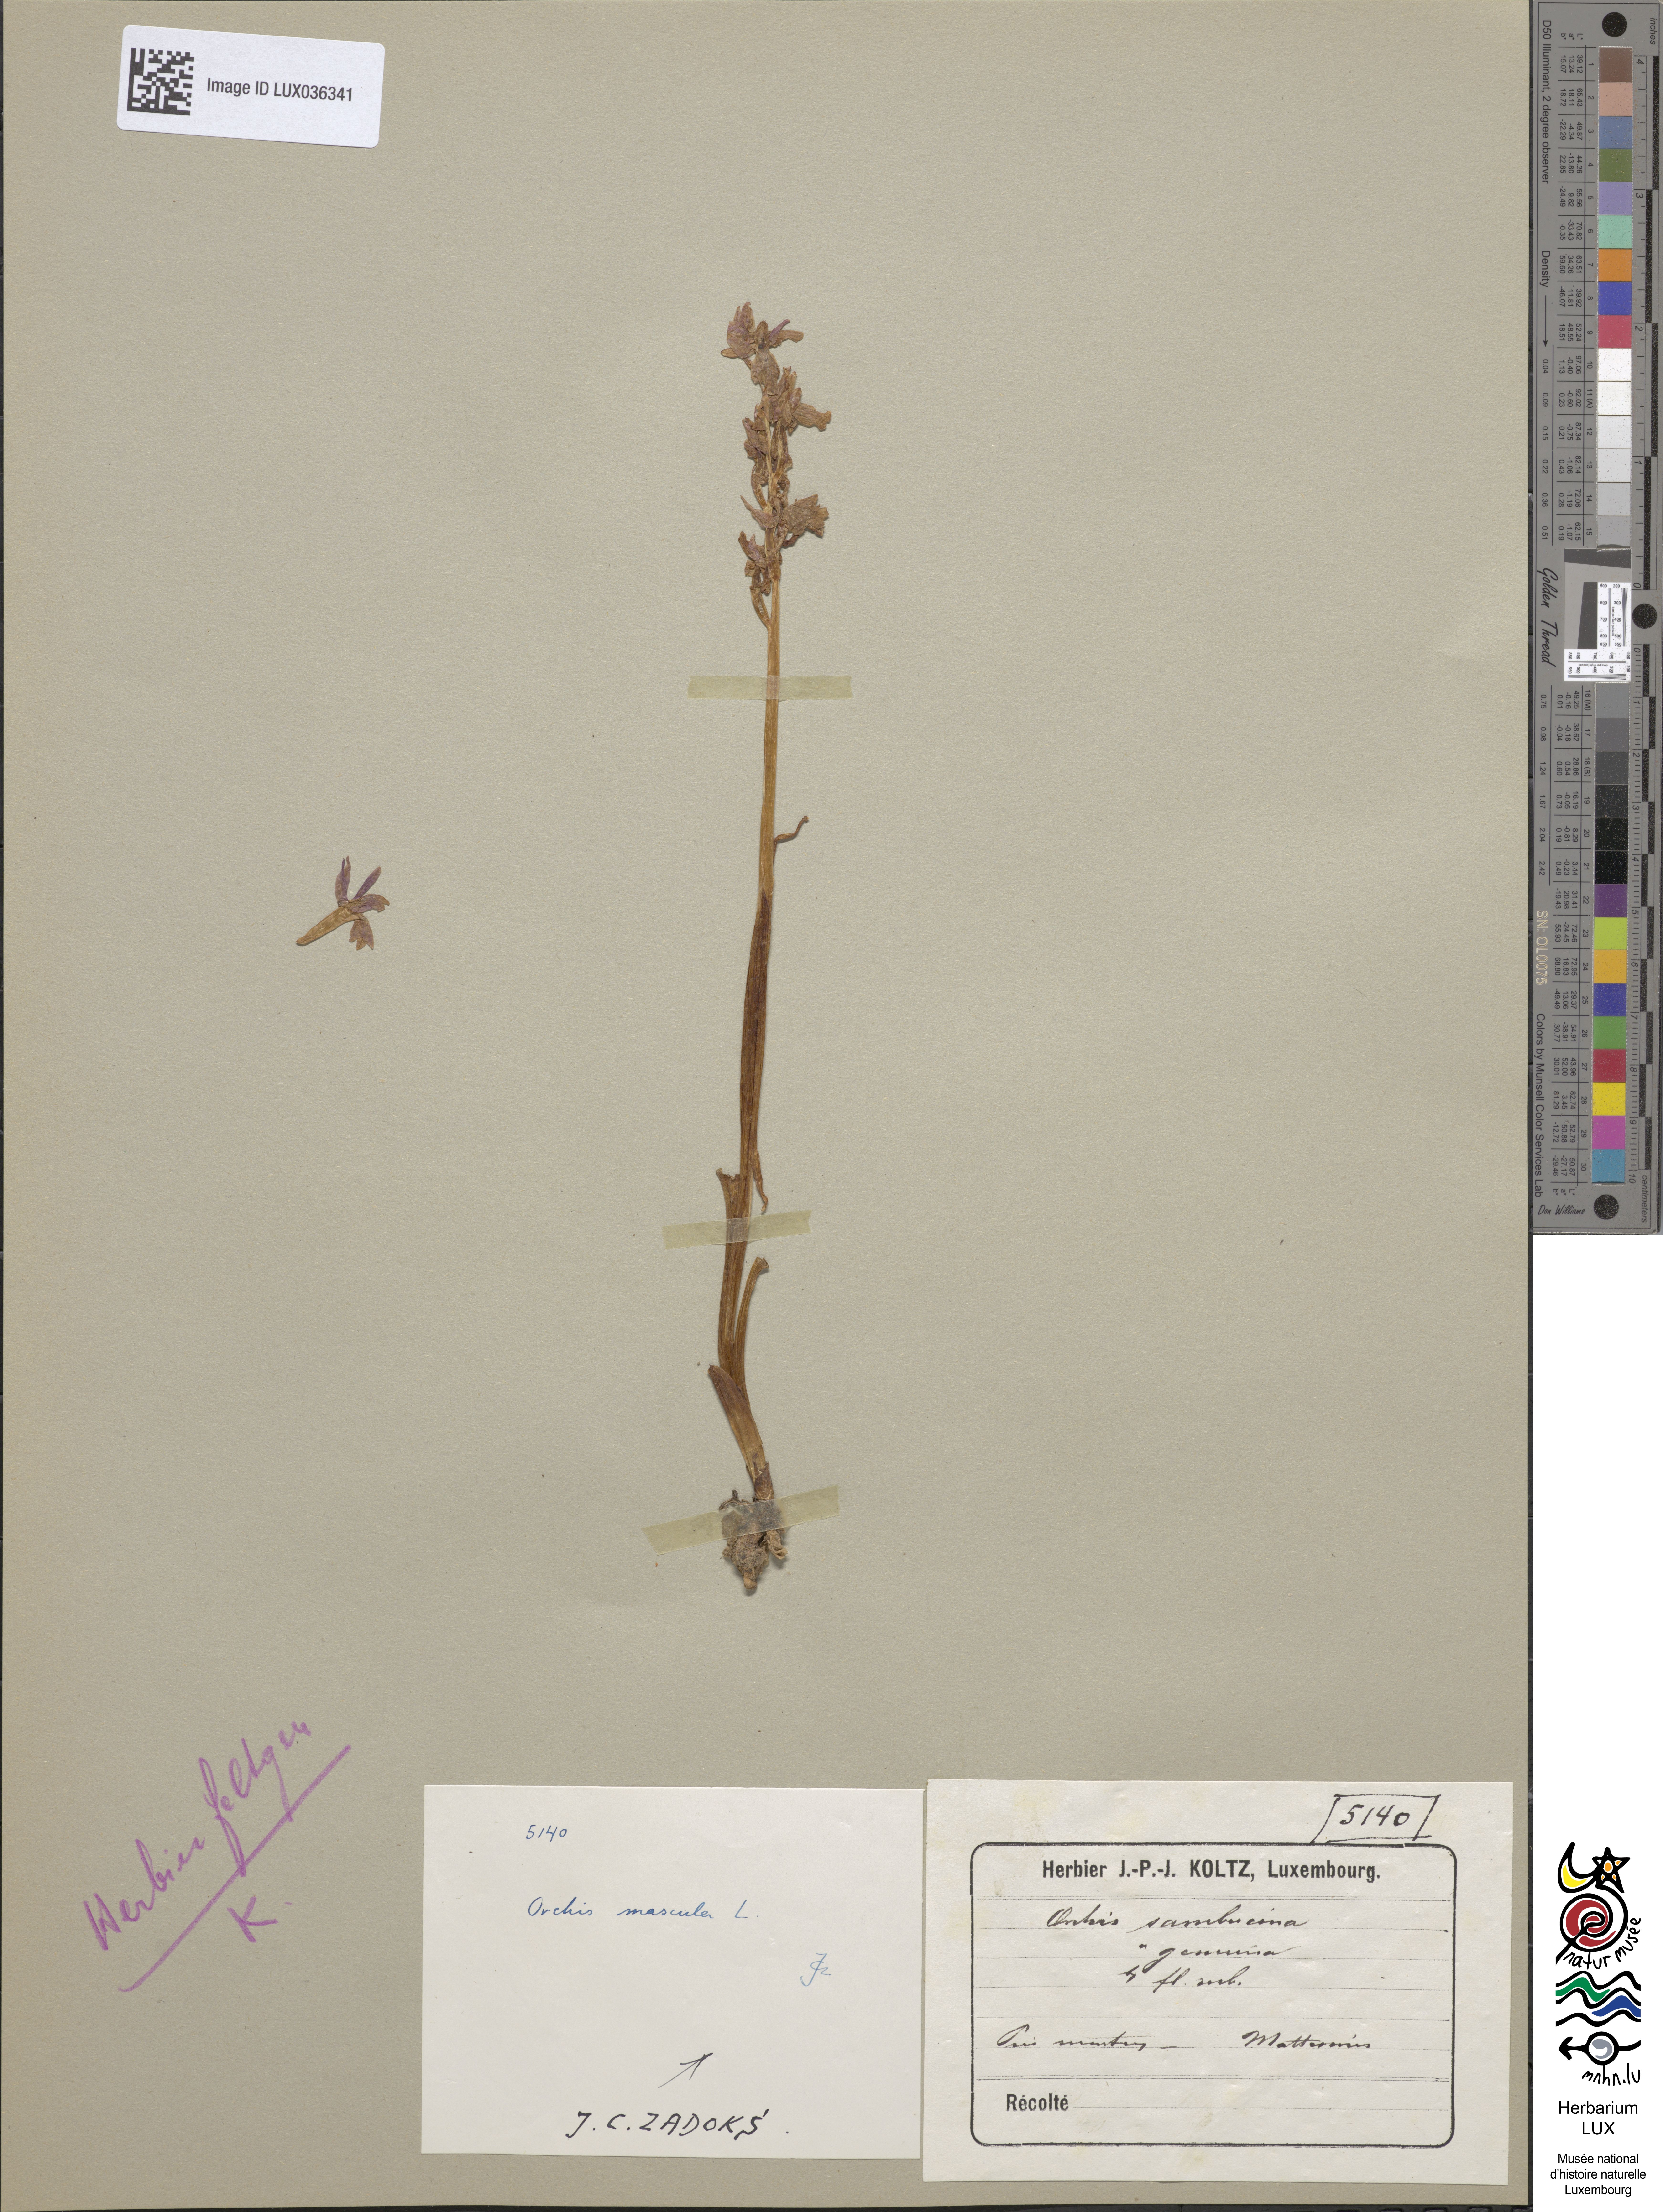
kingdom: Plantae
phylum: Tracheophyta
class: Liliopsida
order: Asparagales
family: Orchidaceae
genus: Orchis
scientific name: Orchis mascula
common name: Early-purple orchid
